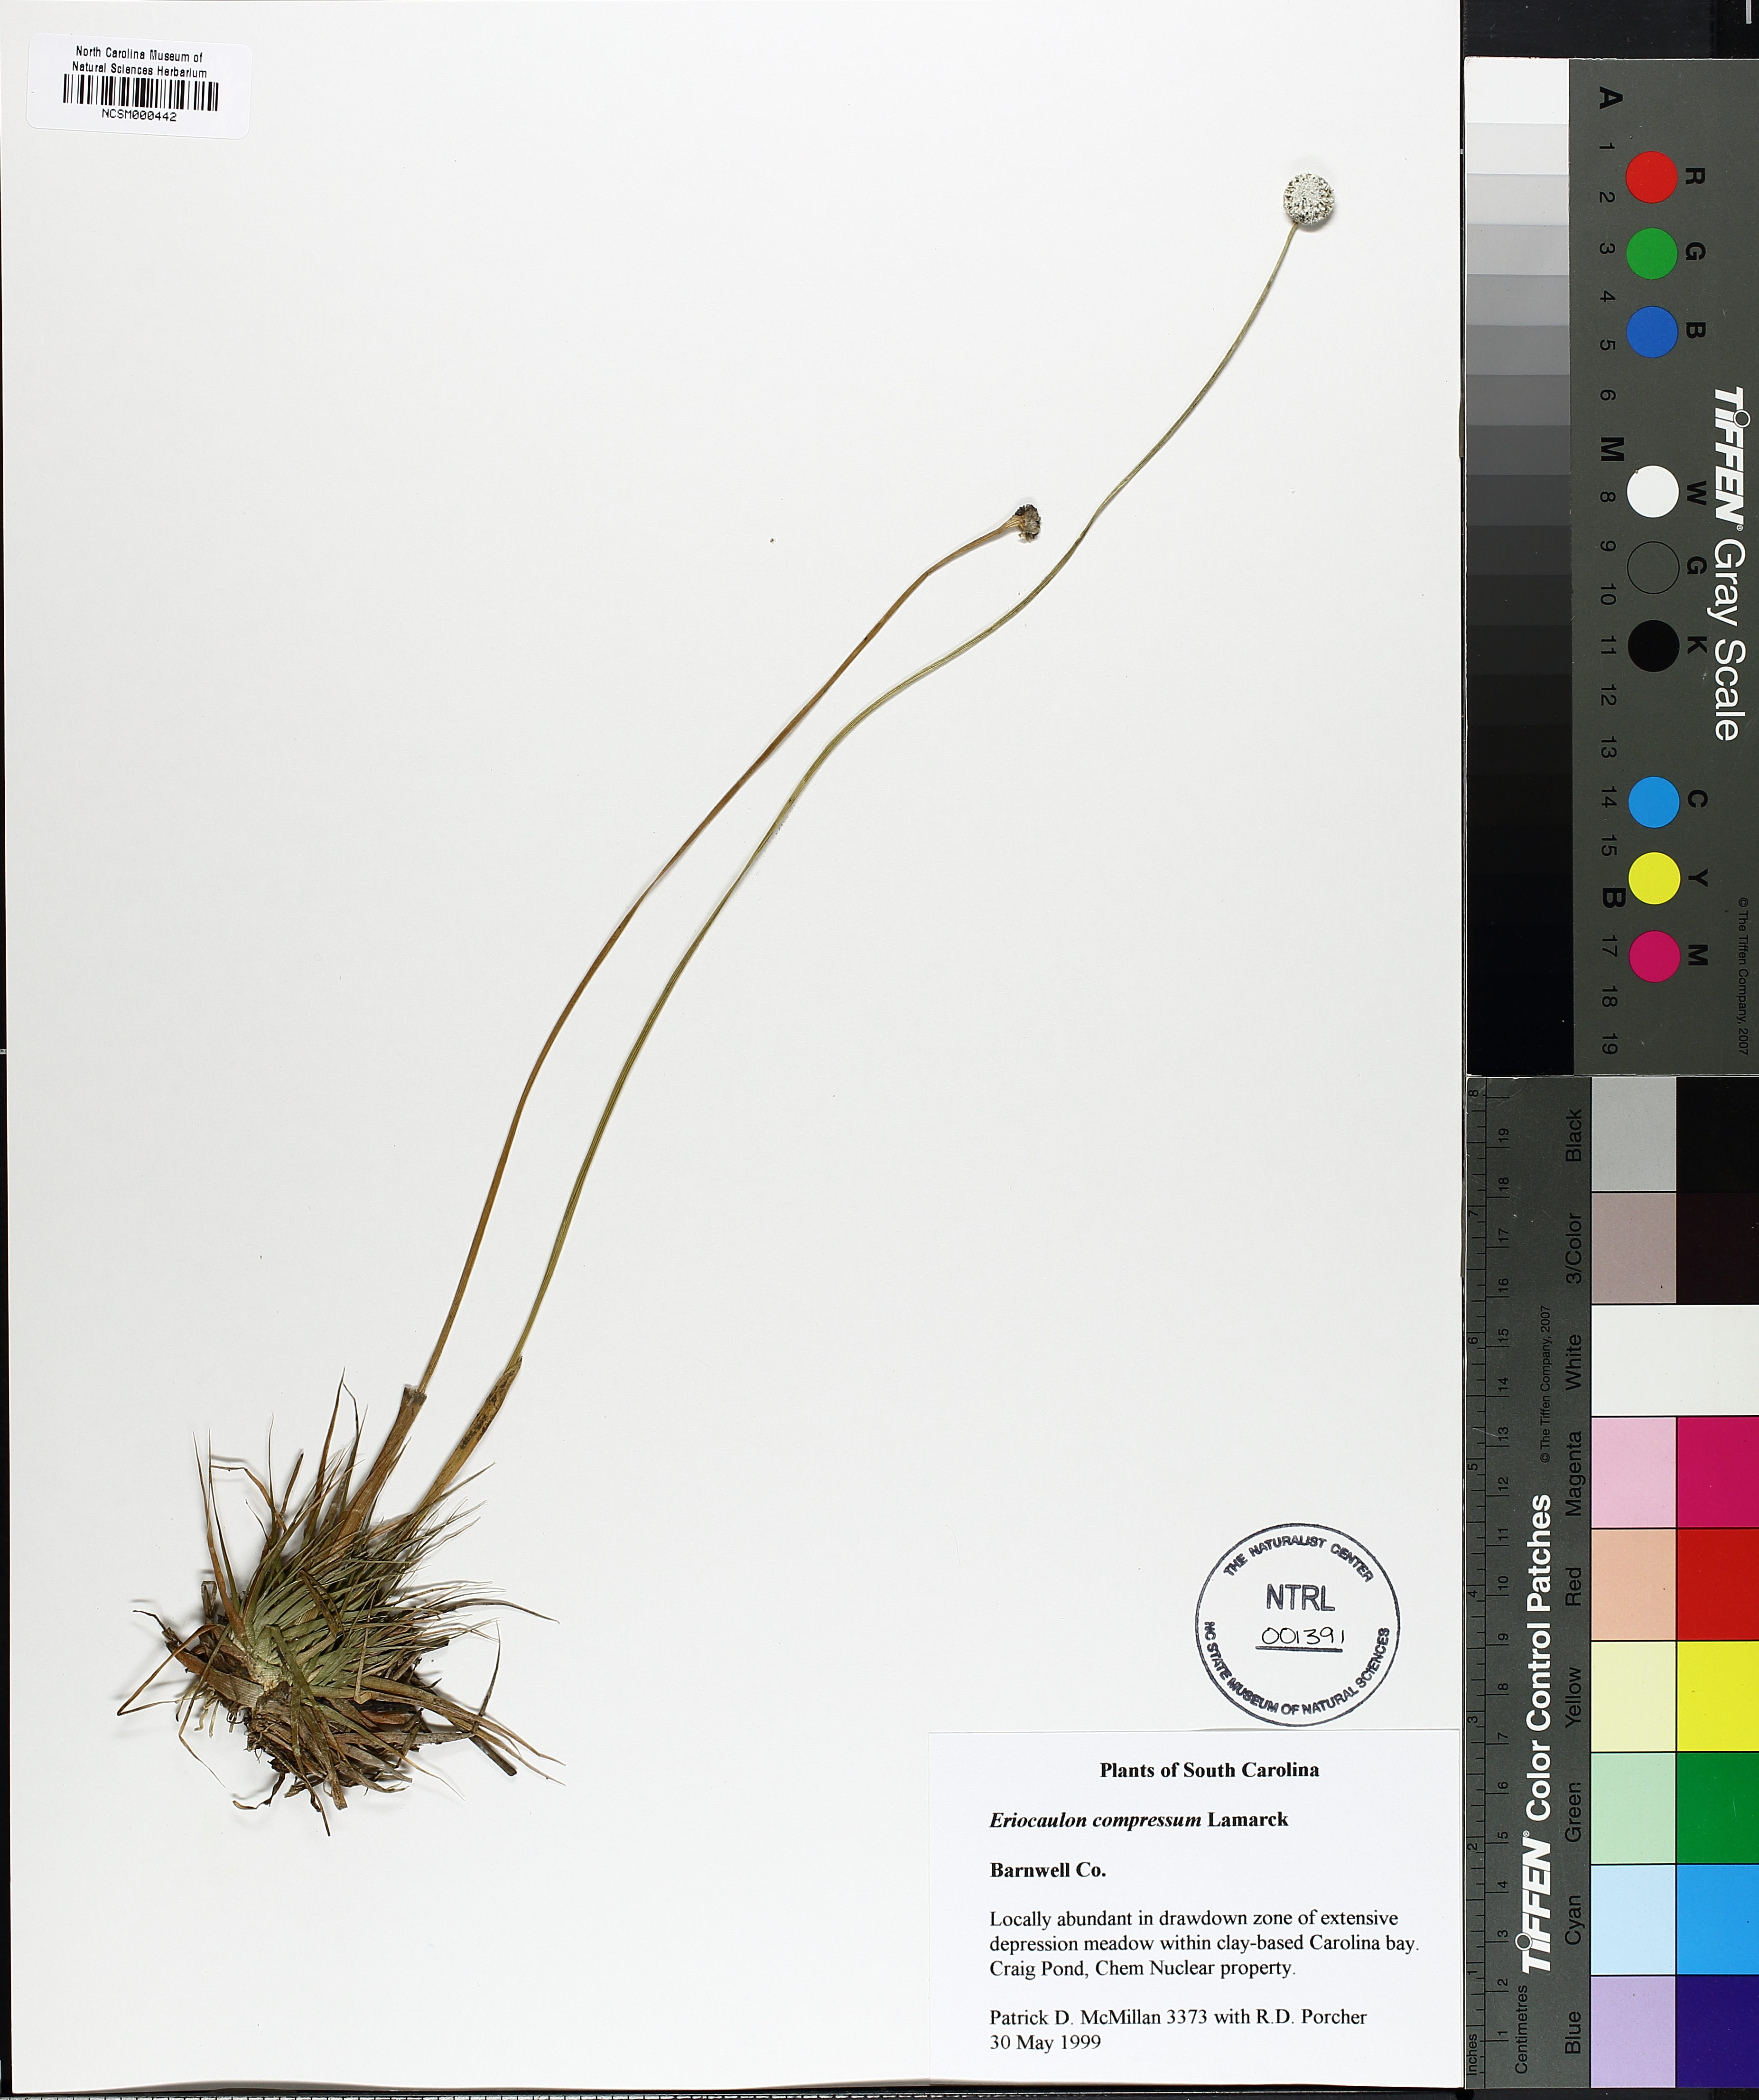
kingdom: Plantae
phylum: Tracheophyta
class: Liliopsida
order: Poales
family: Eriocaulaceae
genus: Eriocaulon
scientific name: Eriocaulon compressum
